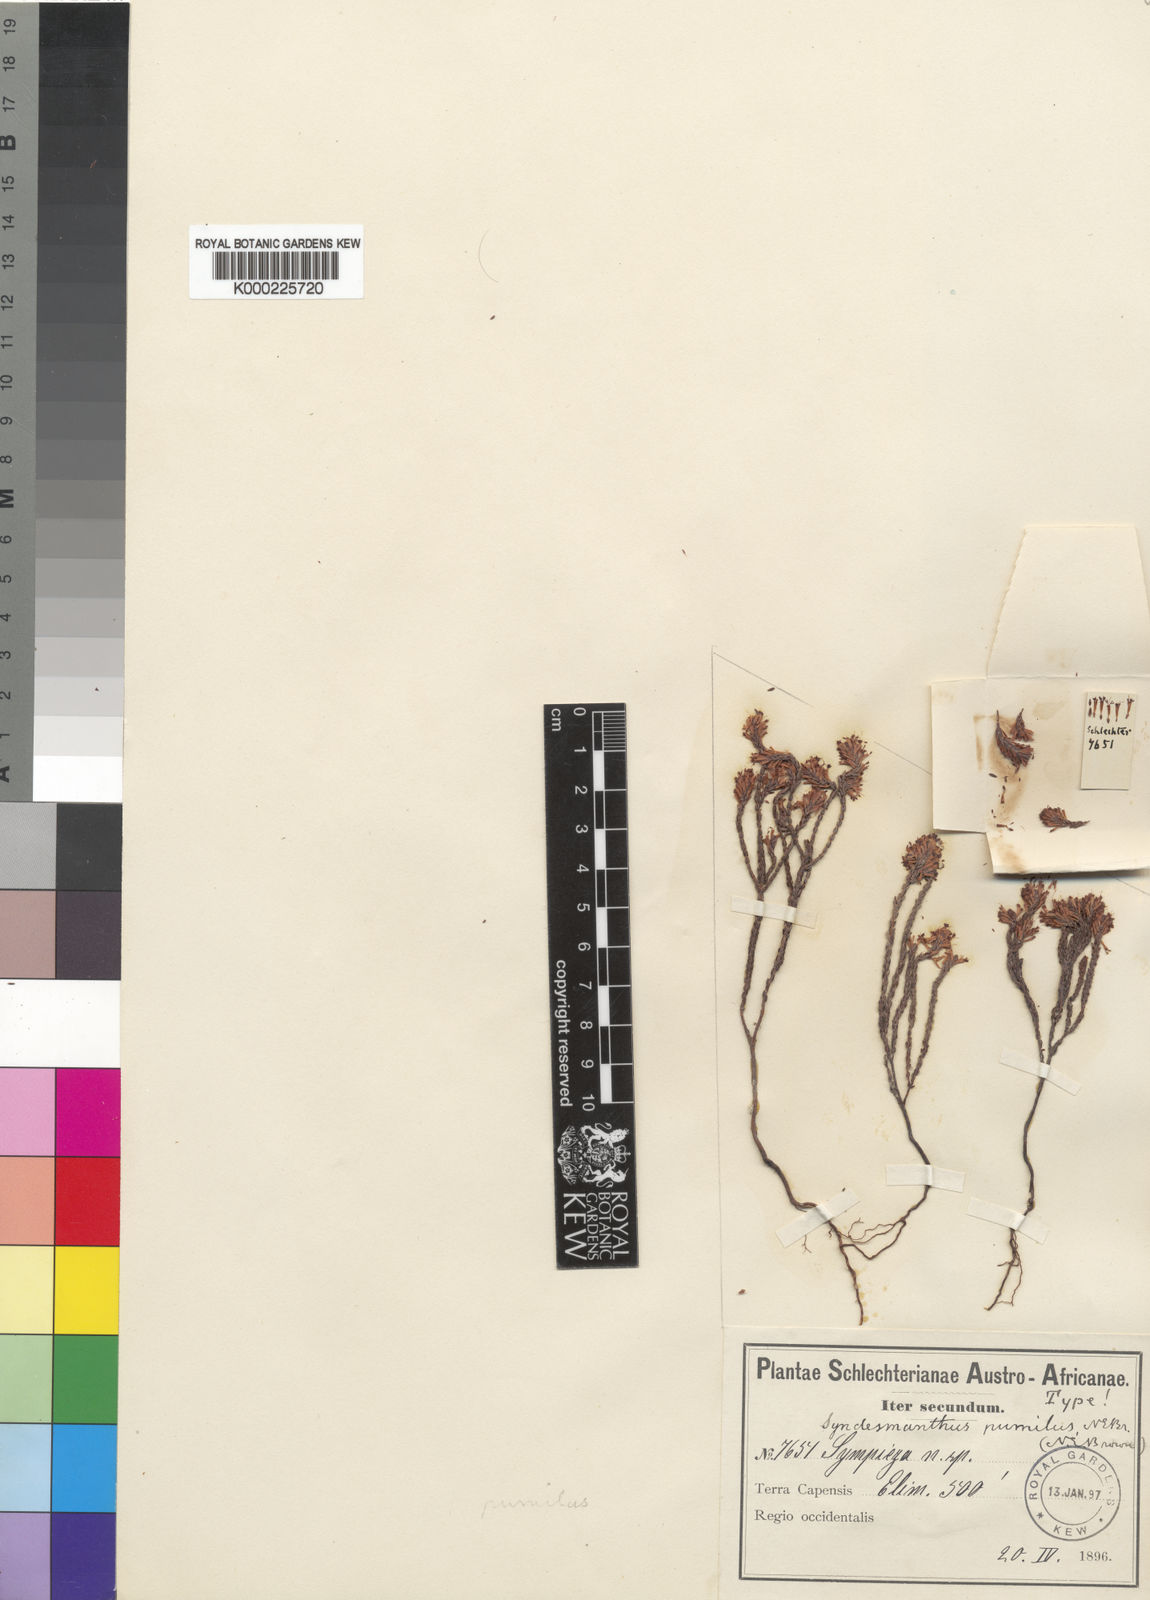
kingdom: Plantae
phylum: Tracheophyta
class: Magnoliopsida
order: Ericales
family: Ericaceae
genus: Erica
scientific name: Erica innovans
